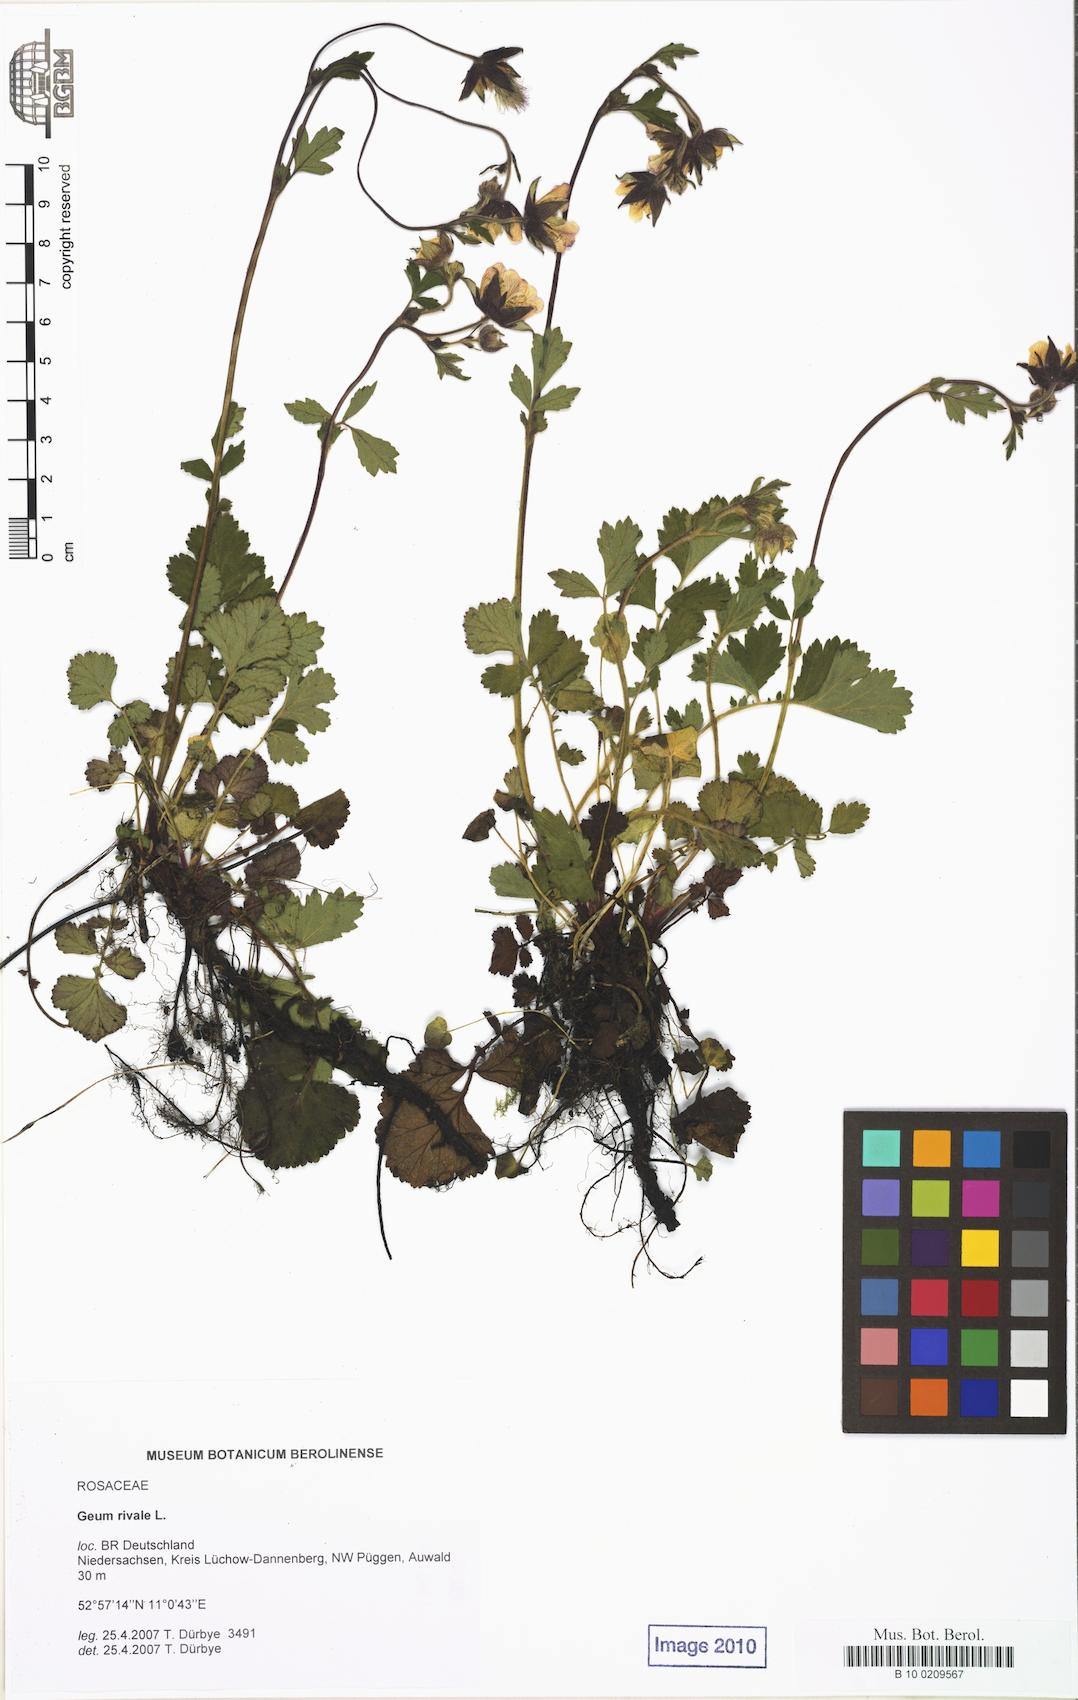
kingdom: Plantae
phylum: Tracheophyta
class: Magnoliopsida
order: Rosales
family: Rosaceae
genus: Geum
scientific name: Geum rivale
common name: Water avens
